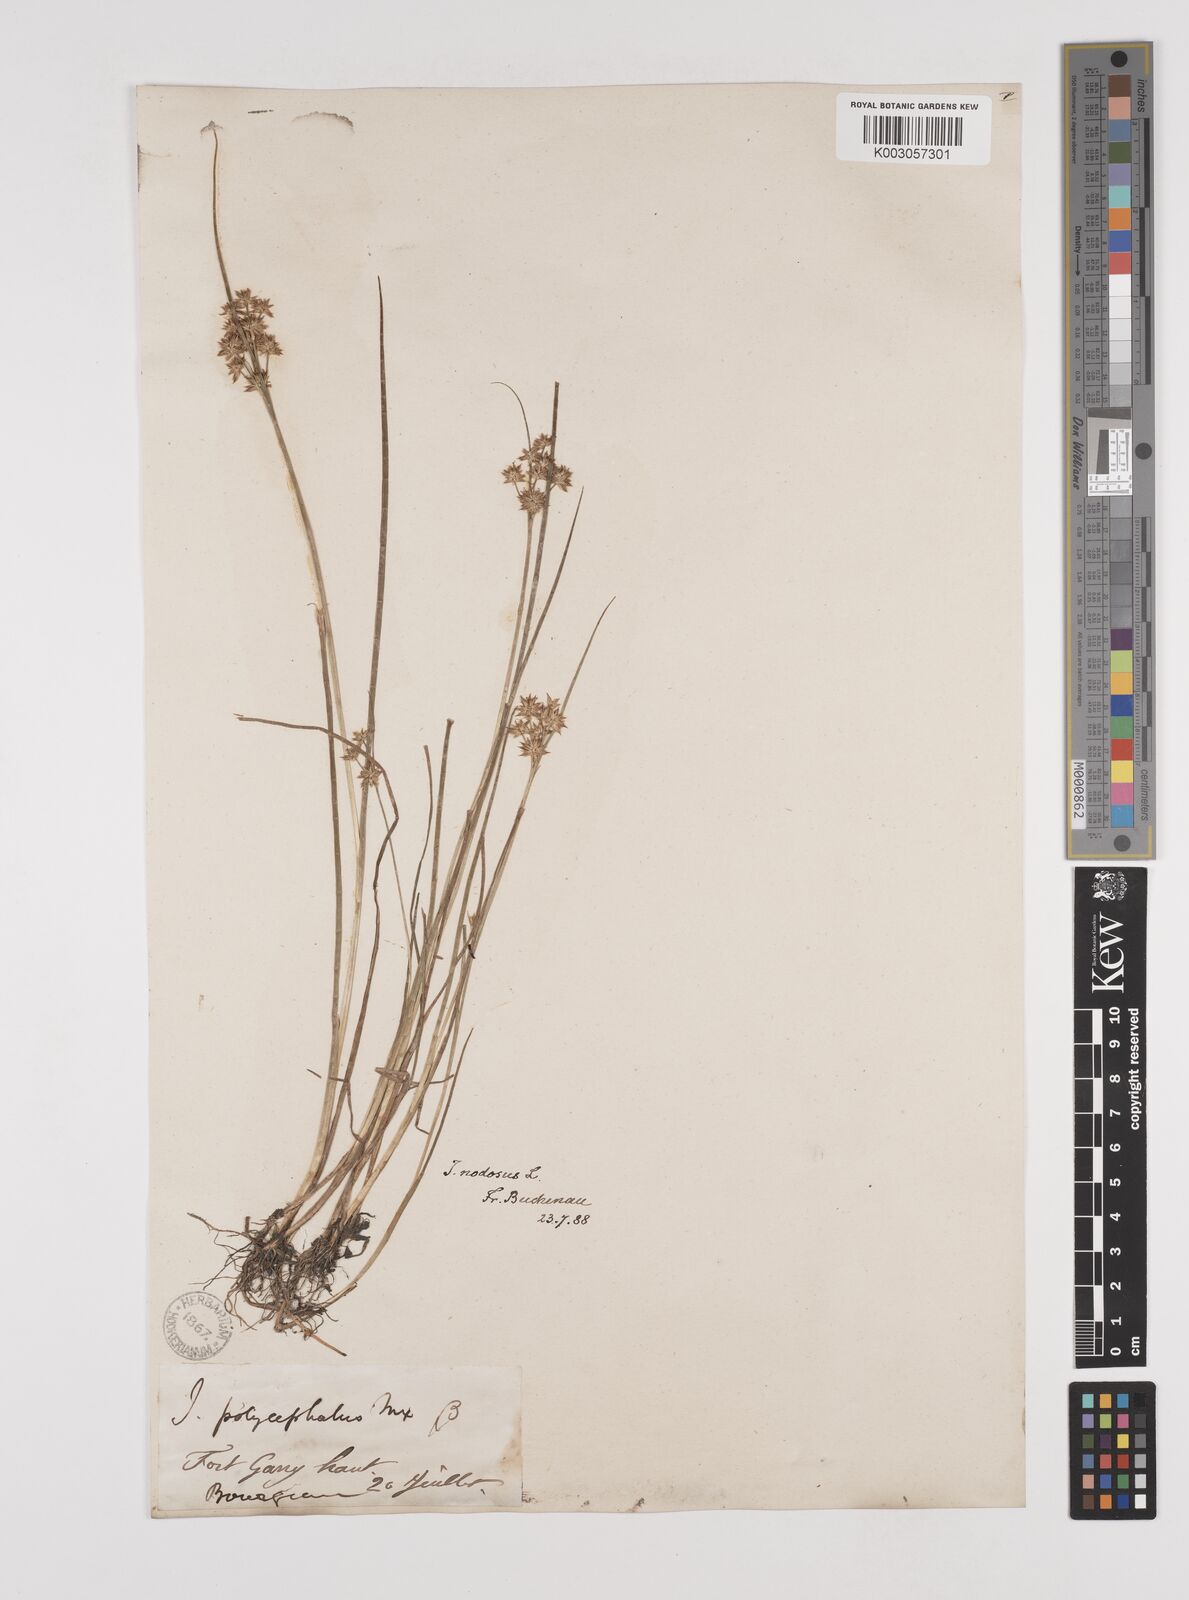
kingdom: Plantae
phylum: Tracheophyta
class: Liliopsida
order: Poales
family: Juncaceae
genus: Juncus
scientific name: Juncus nodosus
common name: Knotted rush
